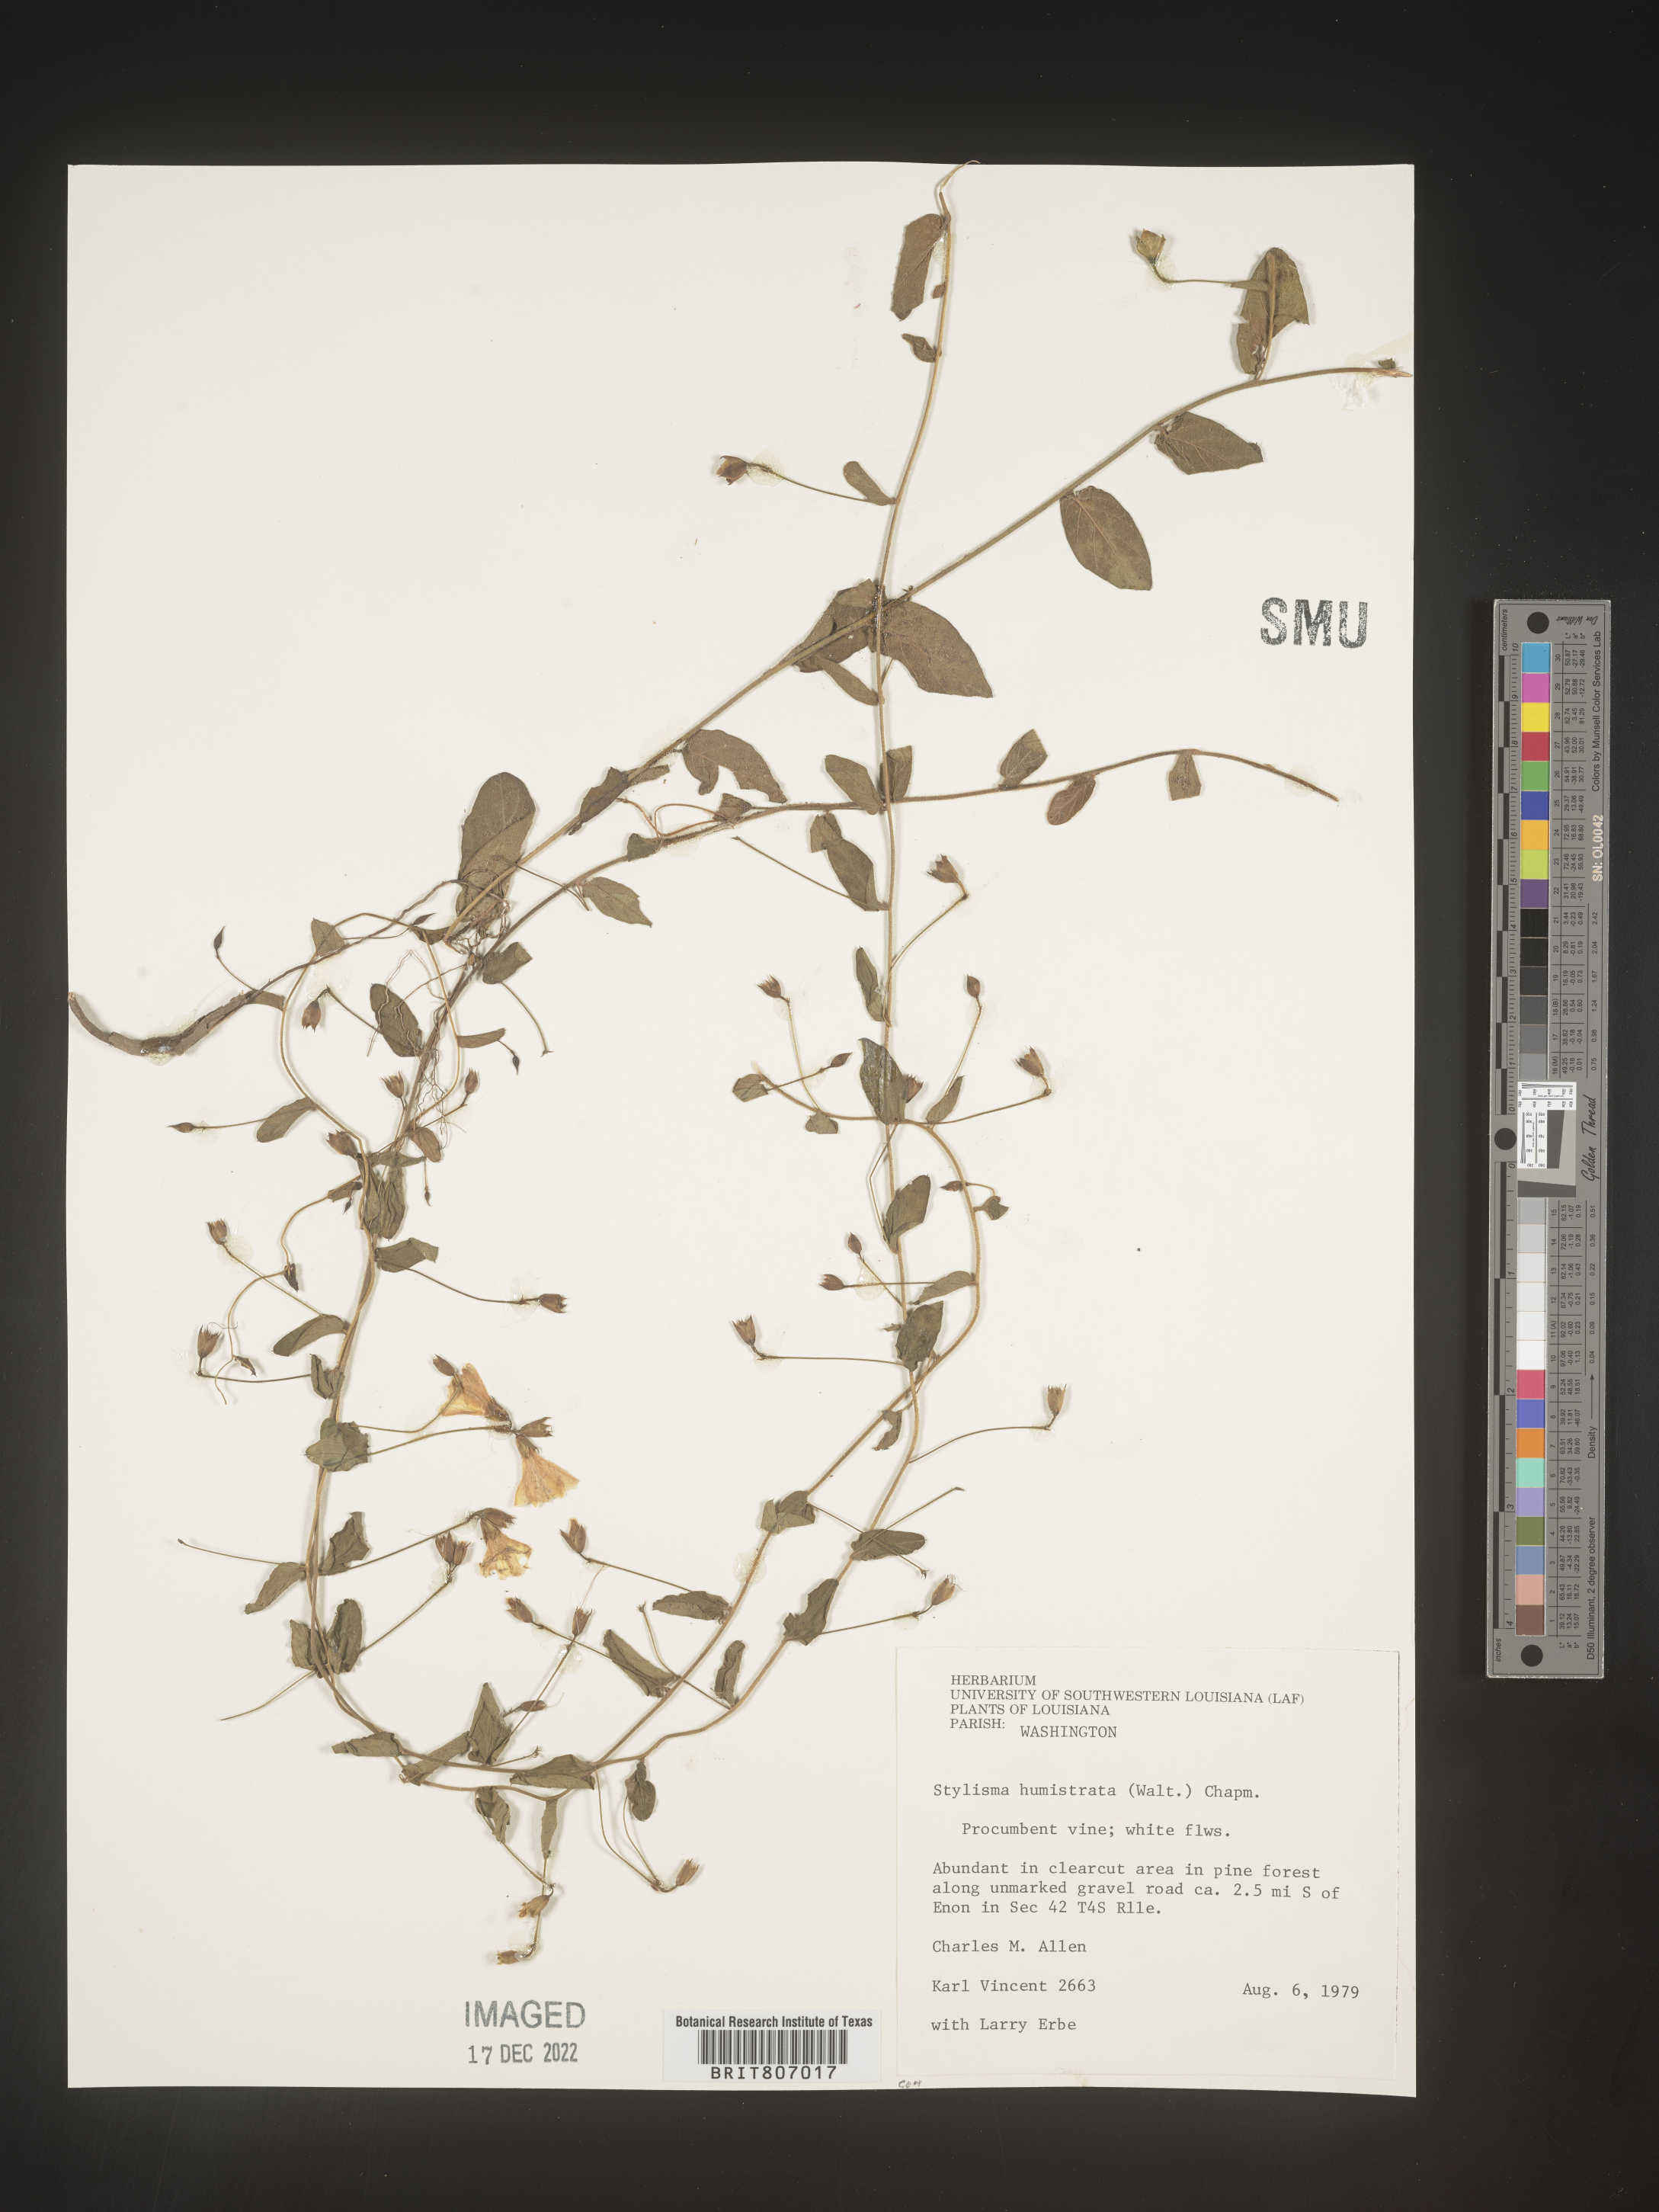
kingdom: Plantae
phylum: Tracheophyta
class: Magnoliopsida
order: Solanales
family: Convolvulaceae
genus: Stylisma
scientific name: Stylisma humistrata
